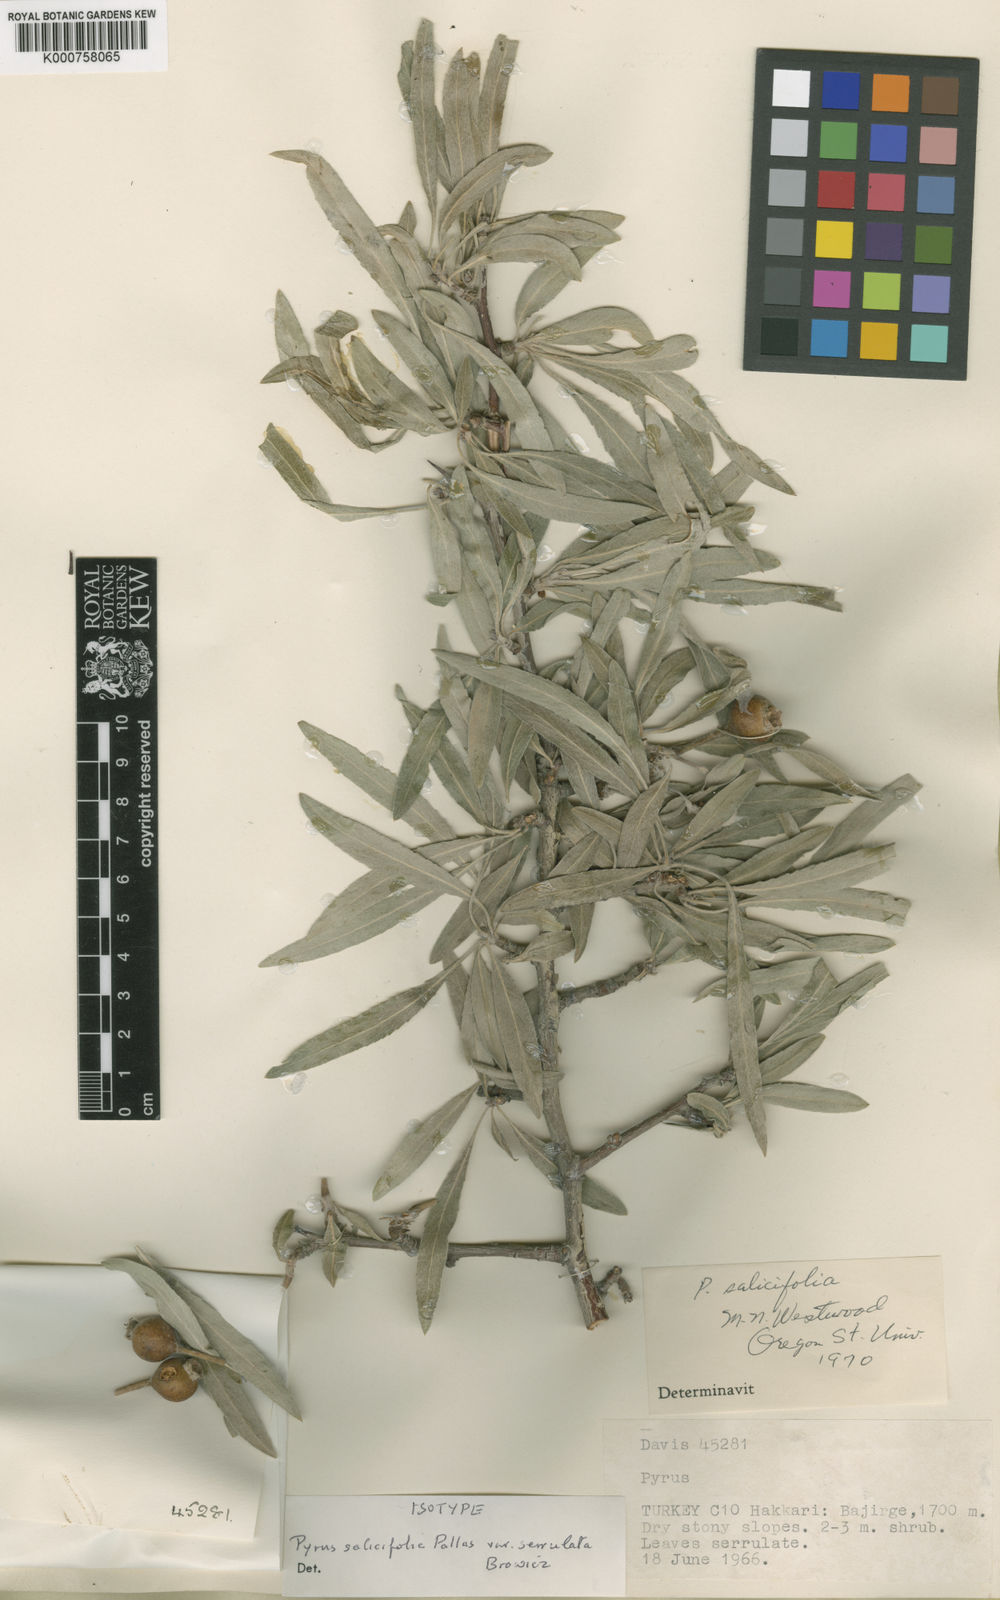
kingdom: Plantae
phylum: Tracheophyta
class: Magnoliopsida
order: Rosales
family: Rosaceae
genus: Pyrus
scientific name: Pyrus salicifolia
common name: Willow-leaved pear
